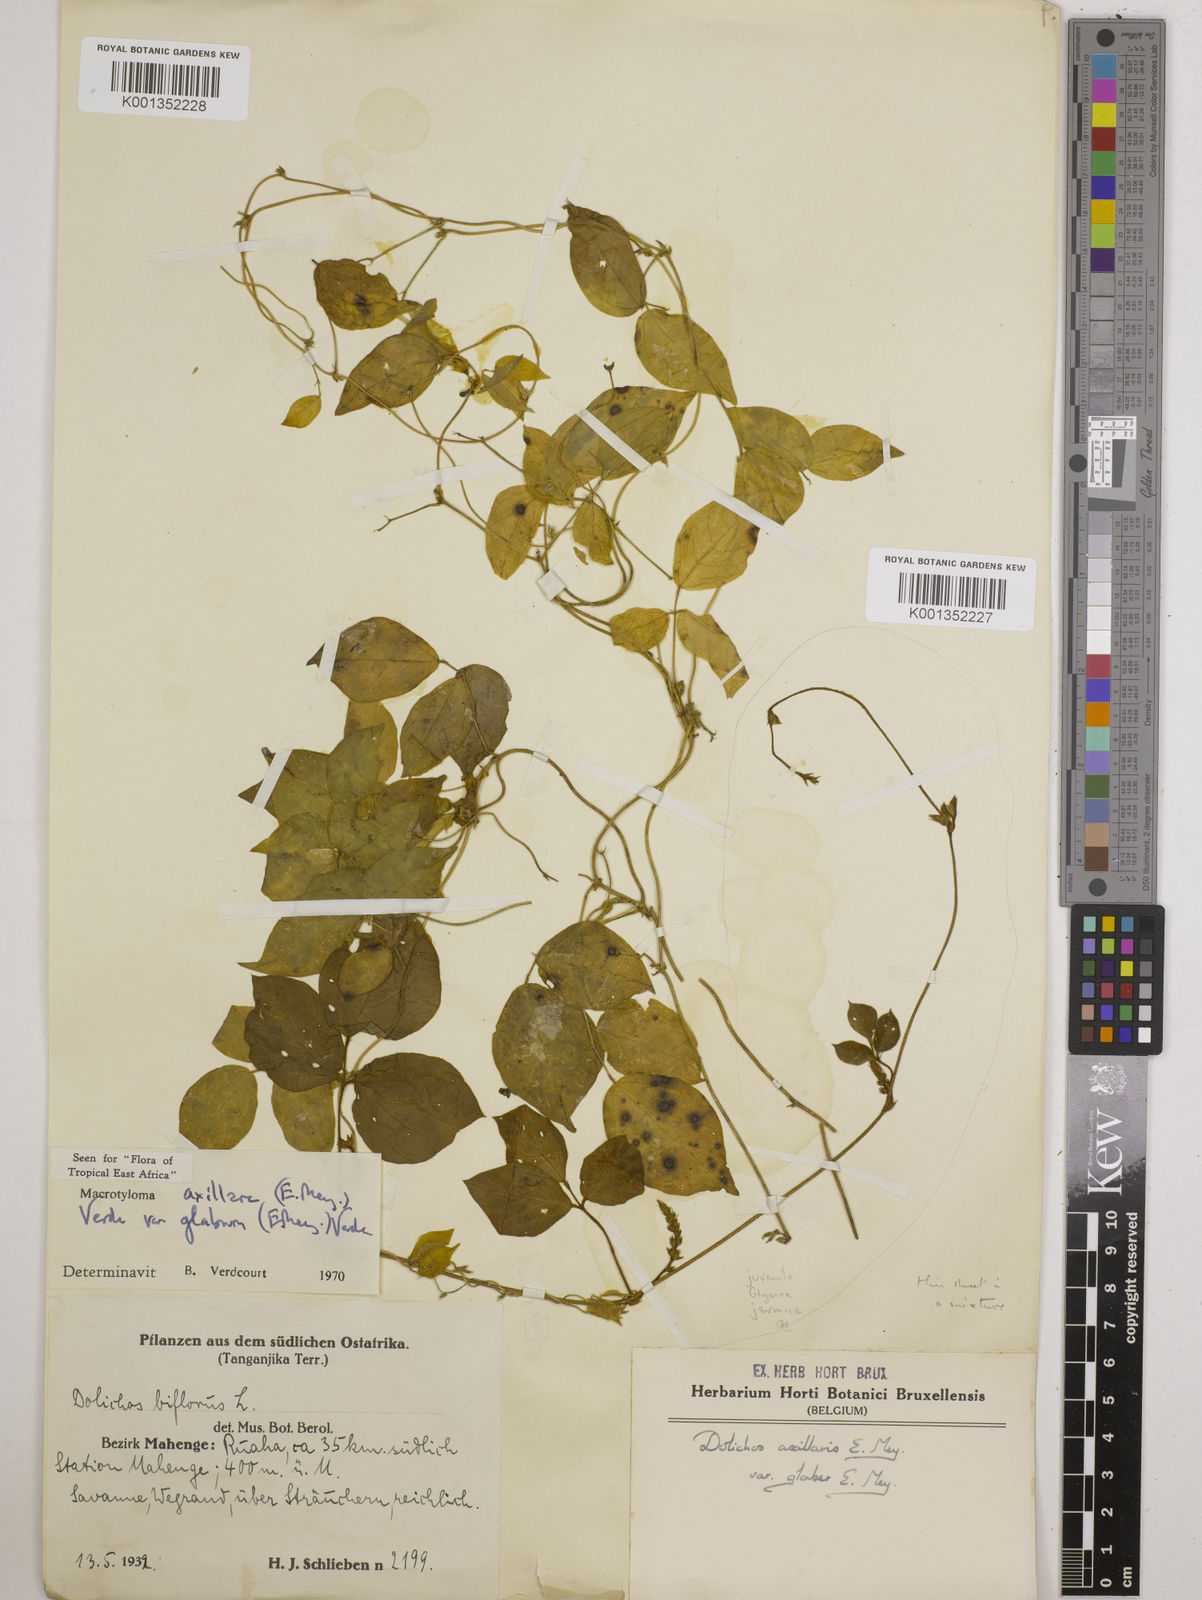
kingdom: Plantae
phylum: Tracheophyta
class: Magnoliopsida
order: Fabales
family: Fabaceae
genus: Macrotyloma
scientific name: Macrotyloma
